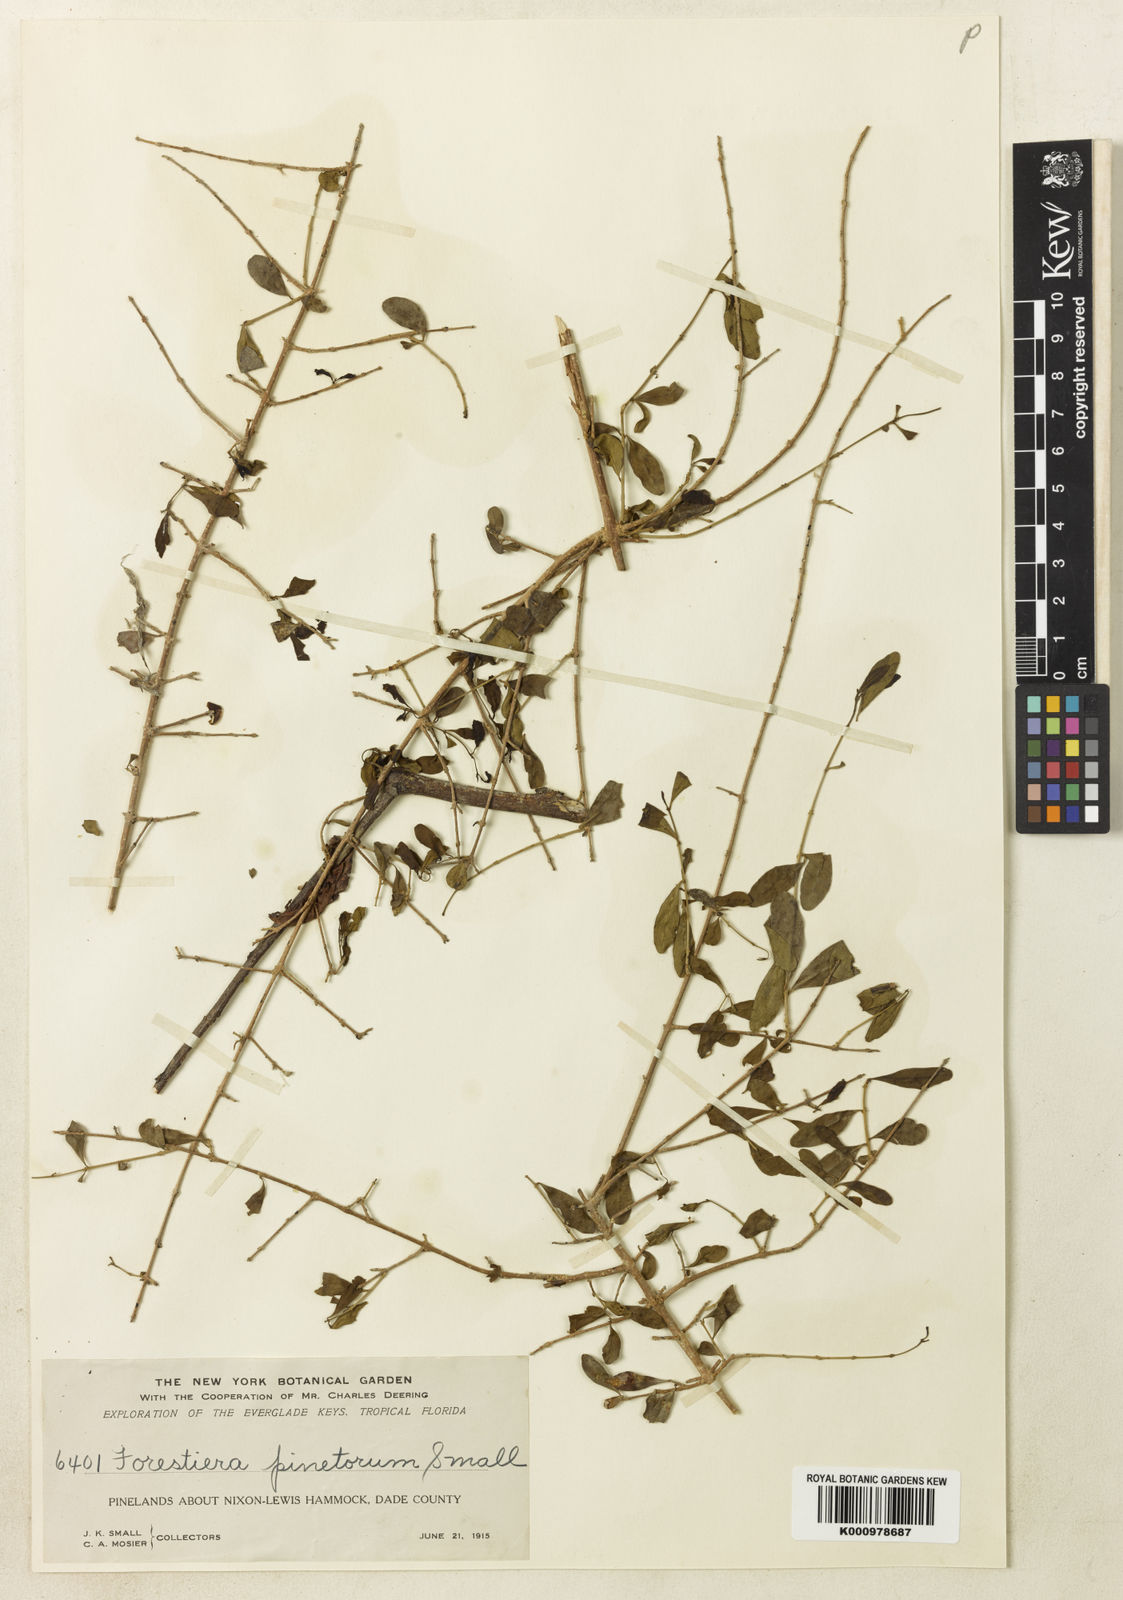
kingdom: Plantae
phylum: Tracheophyta
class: Magnoliopsida
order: Lamiales
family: Oleaceae
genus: Forestiera
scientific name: Forestiera segregata
